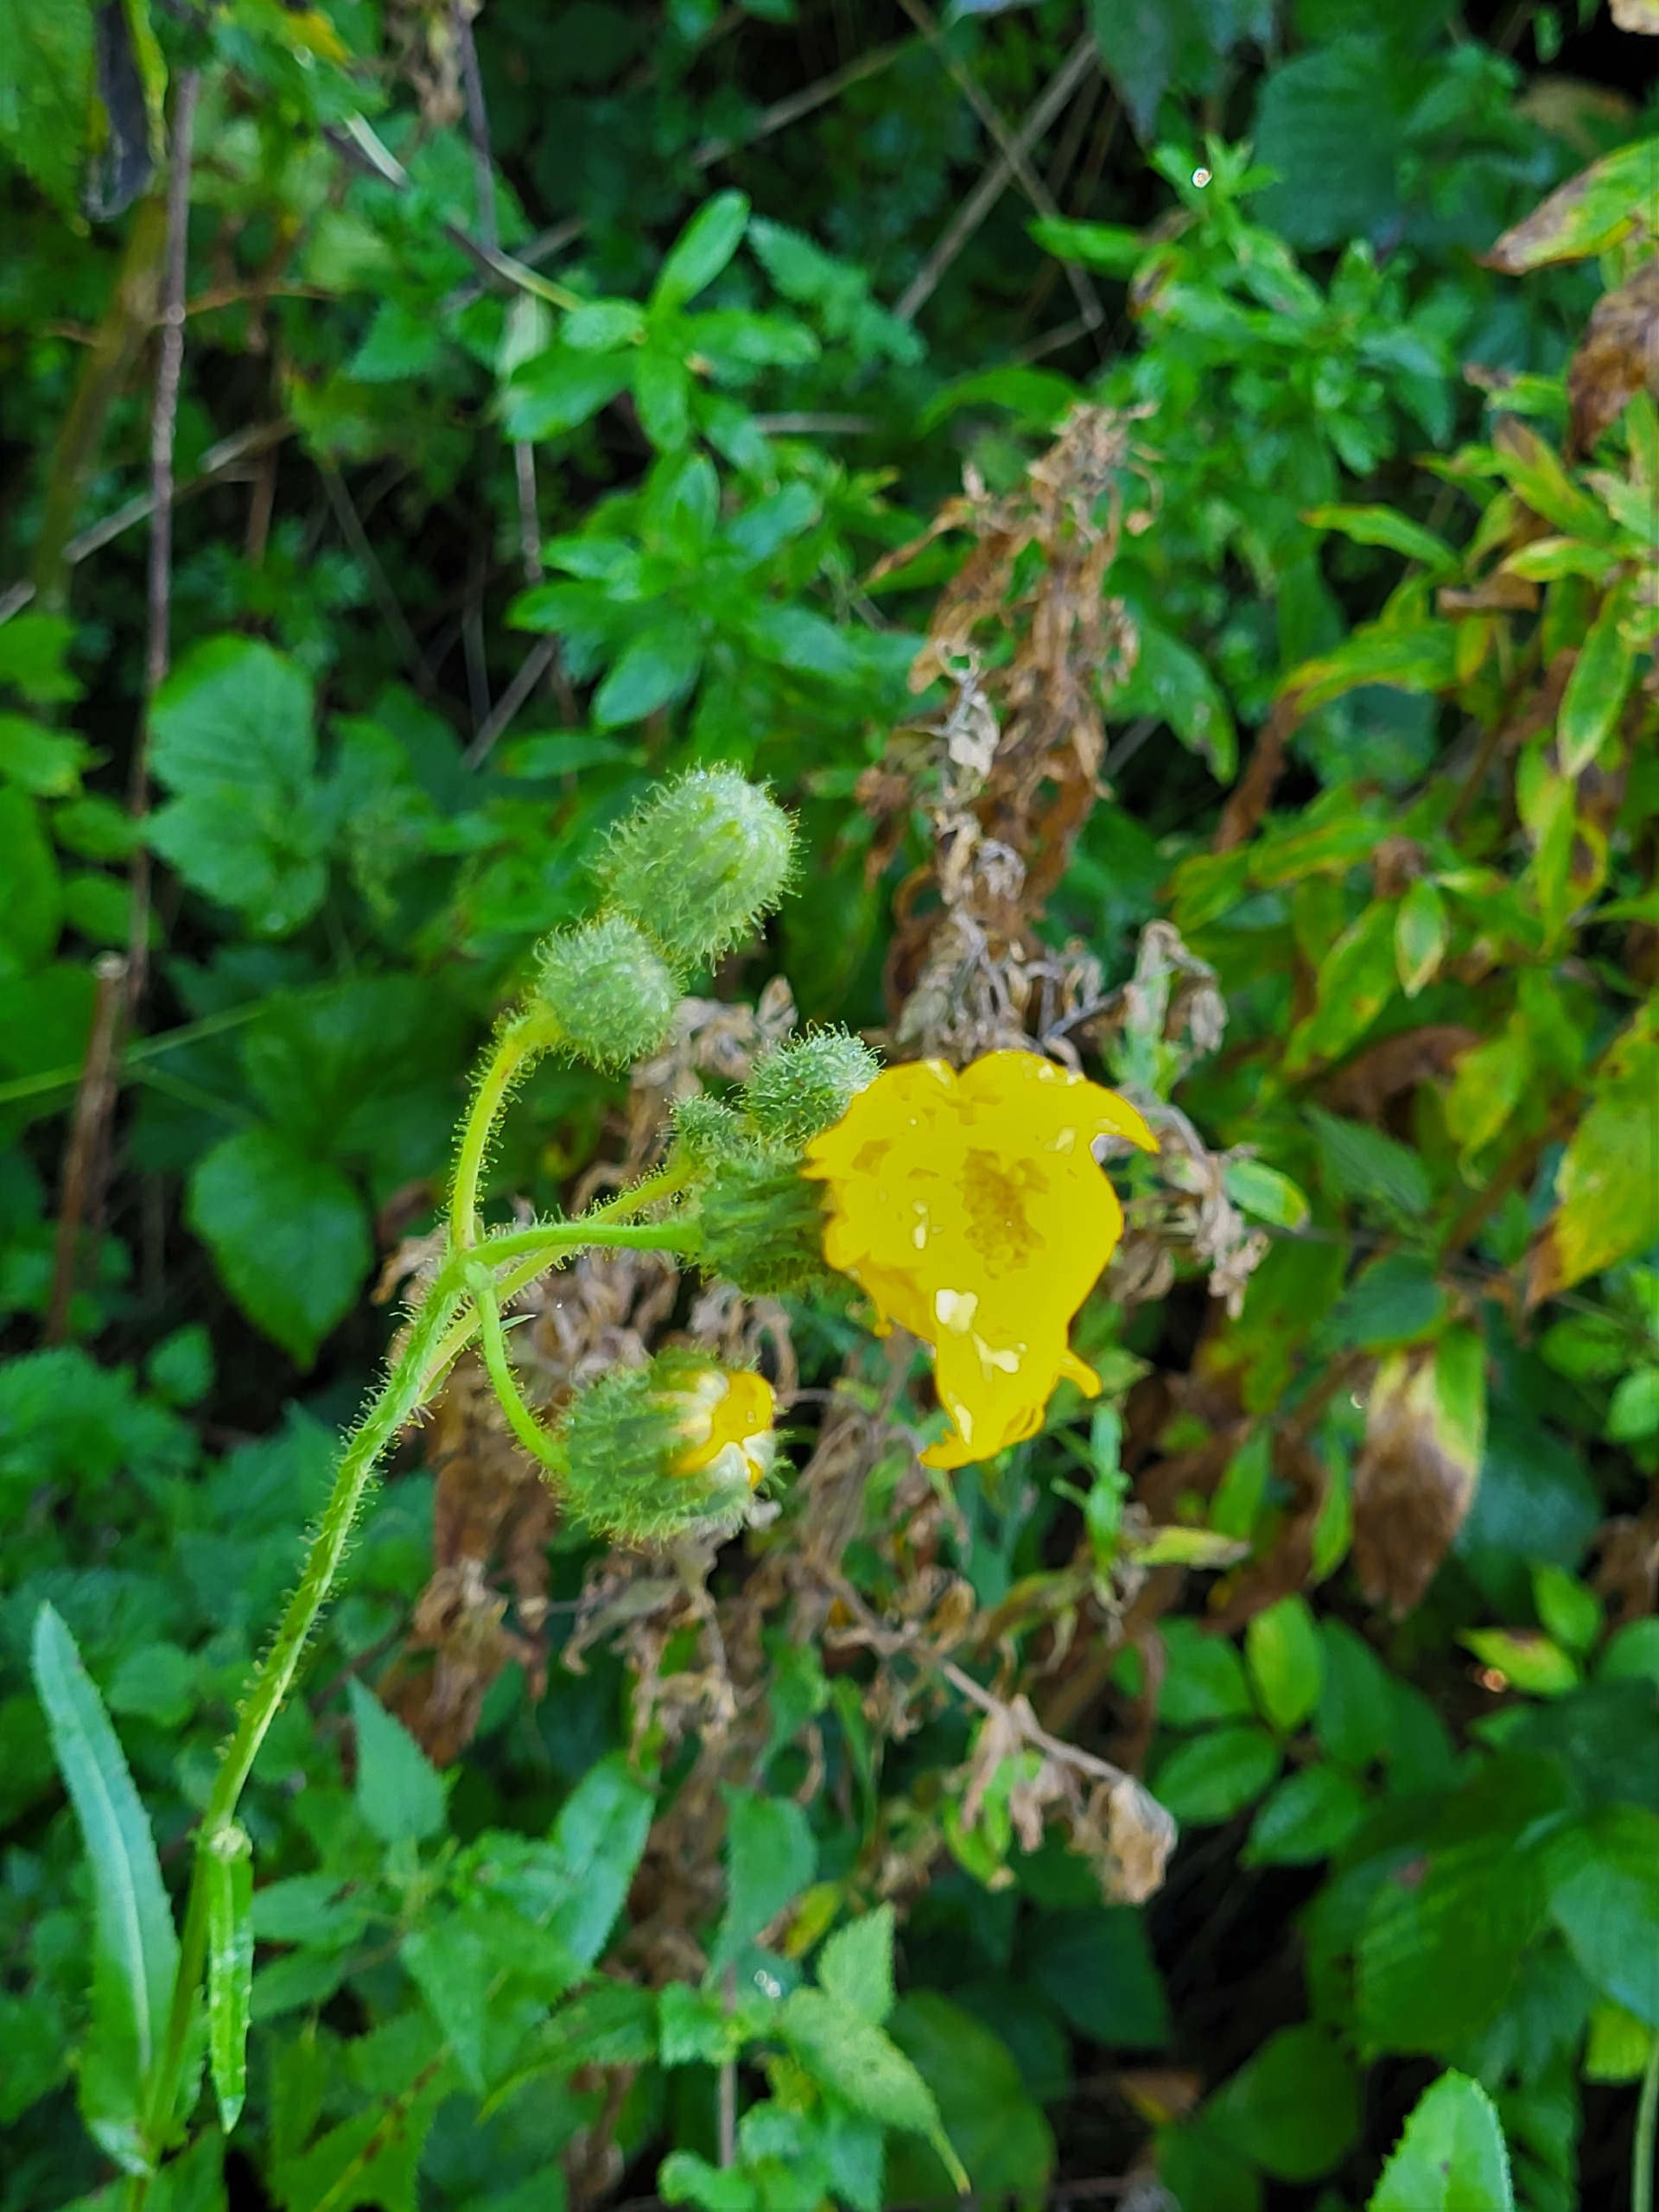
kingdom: Plantae
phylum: Tracheophyta
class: Magnoliopsida
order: Asterales
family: Asteraceae
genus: Sonchus
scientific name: Sonchus arvensis
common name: Ager-svinemælk
